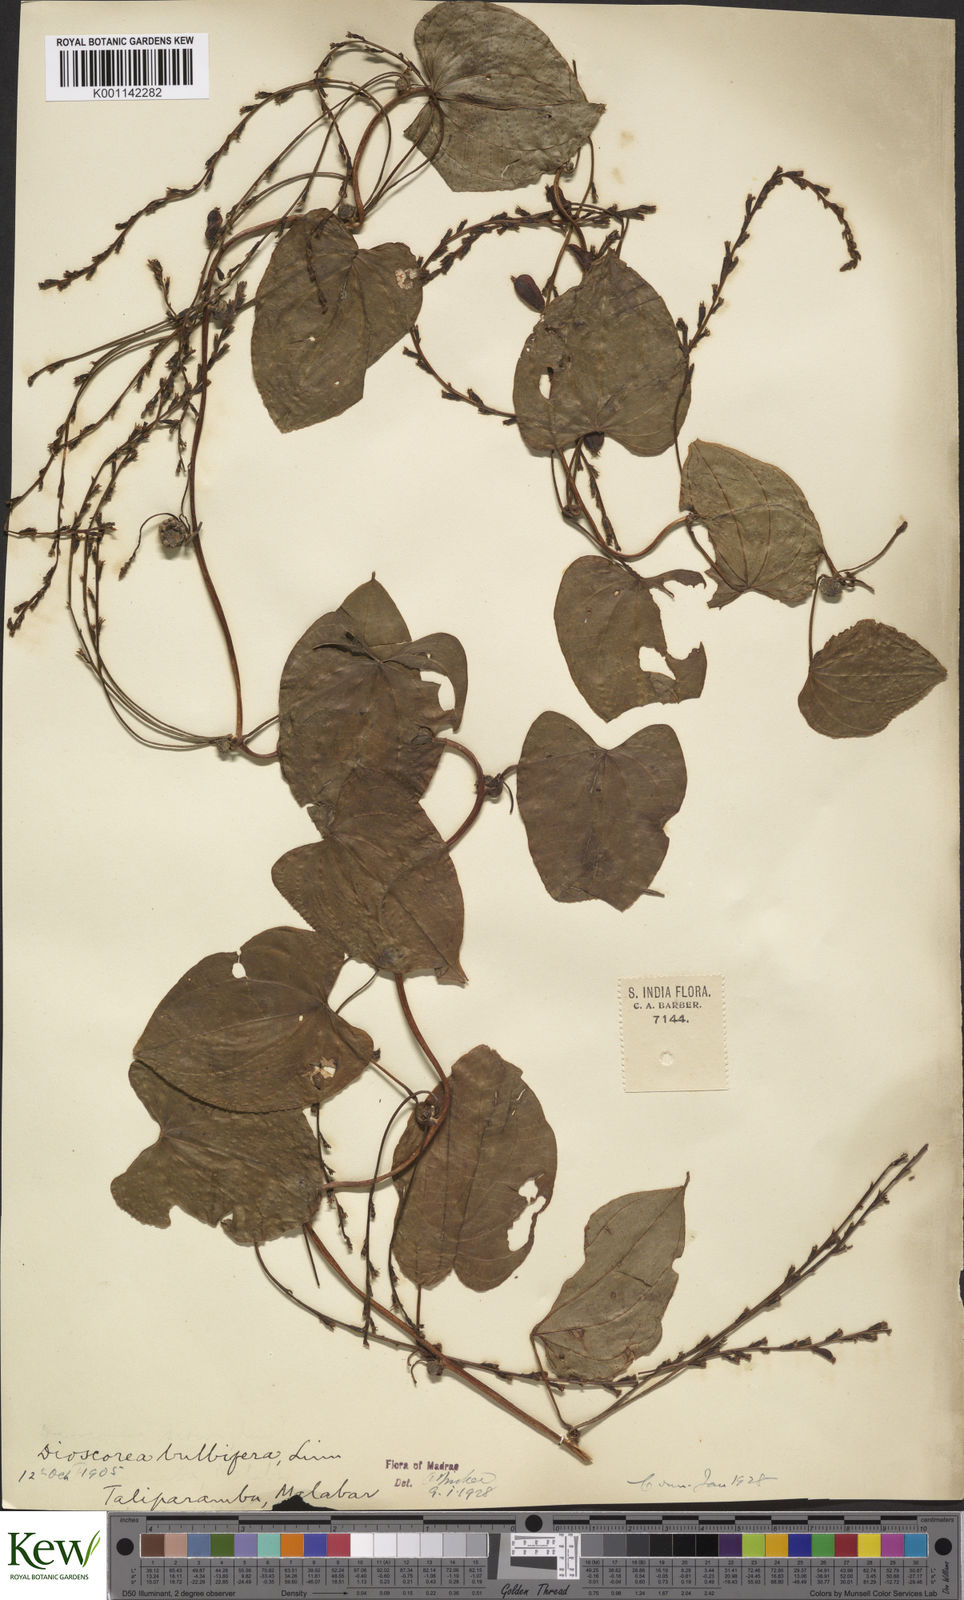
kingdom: Plantae
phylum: Tracheophyta
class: Liliopsida
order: Dioscoreales
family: Dioscoreaceae
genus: Dioscorea
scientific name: Dioscorea bulbifera
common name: Air yam
